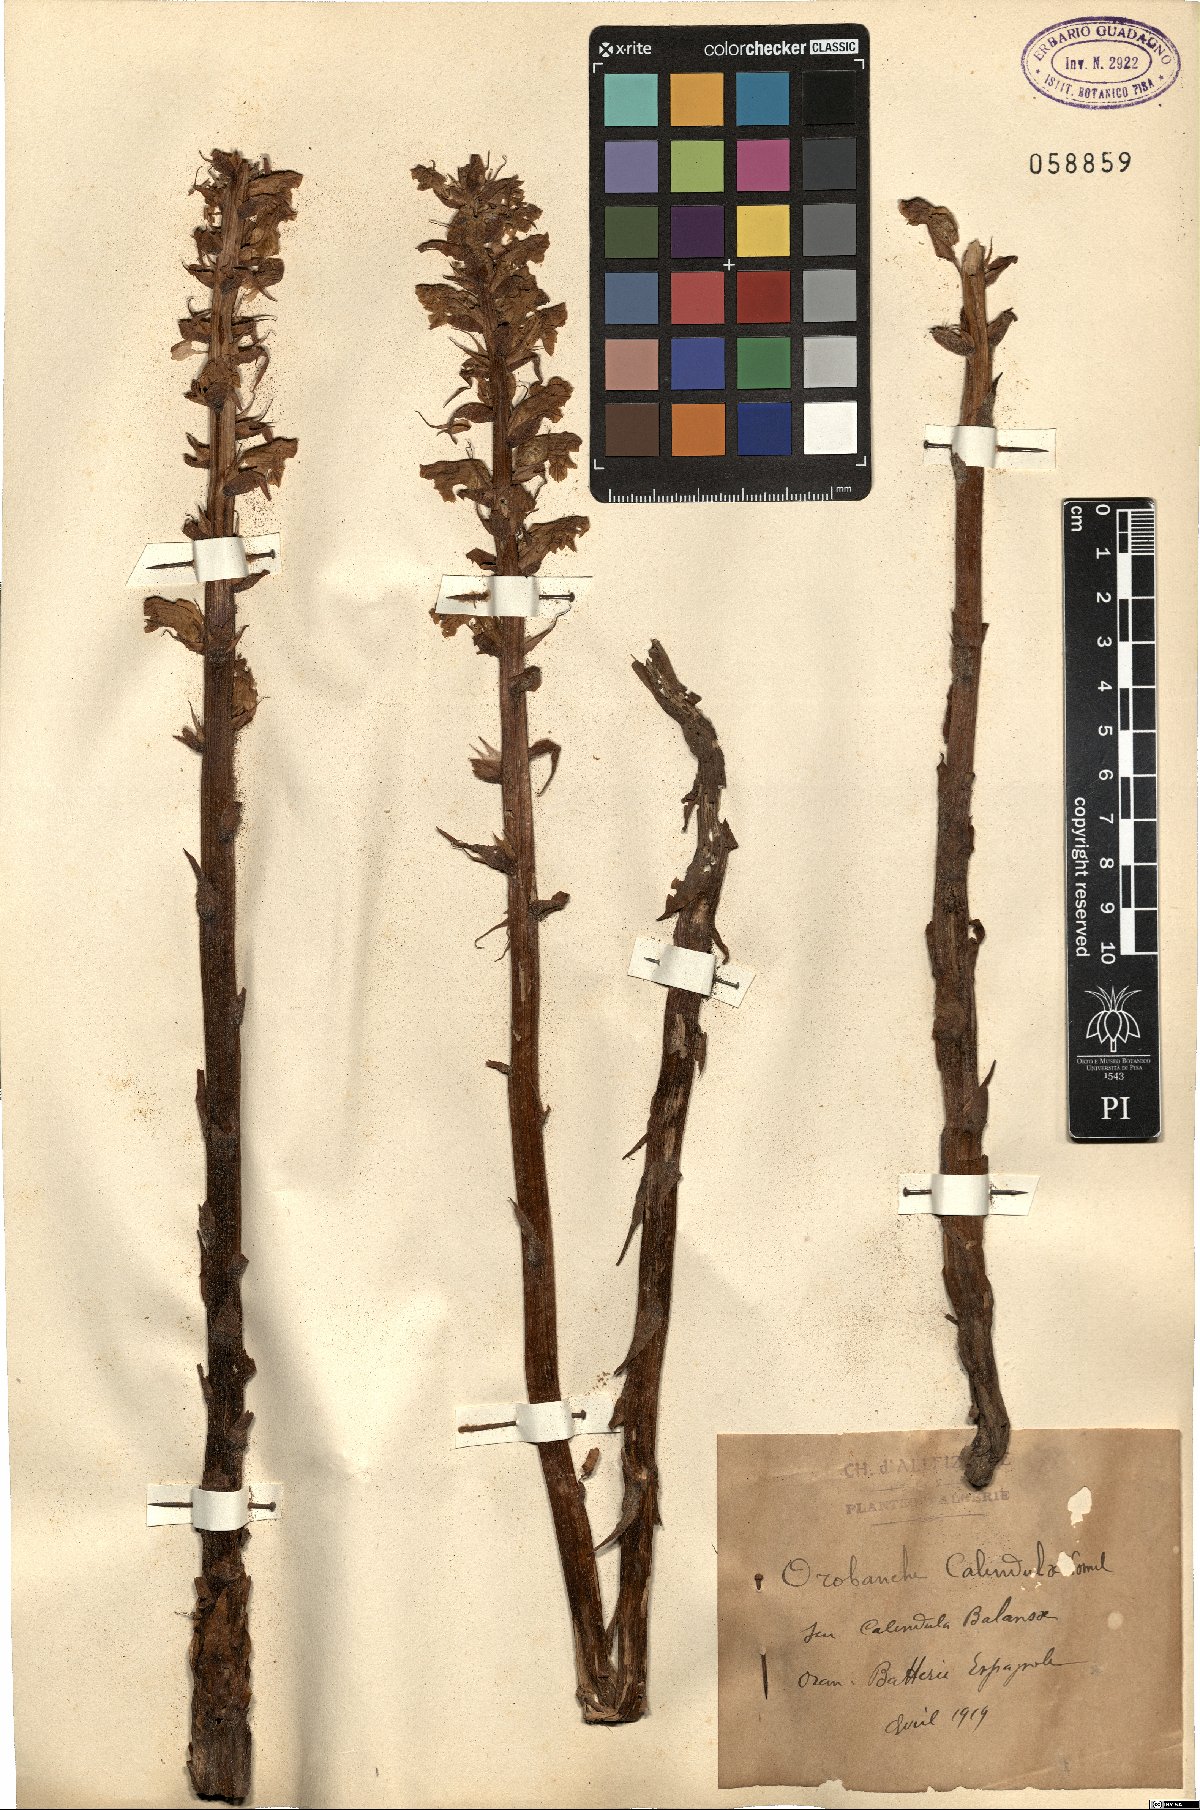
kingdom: Plantae
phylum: Tracheophyta
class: Magnoliopsida
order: Lamiales
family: Orobanchaceae
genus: Orobanche
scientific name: Orobanche calendulae
